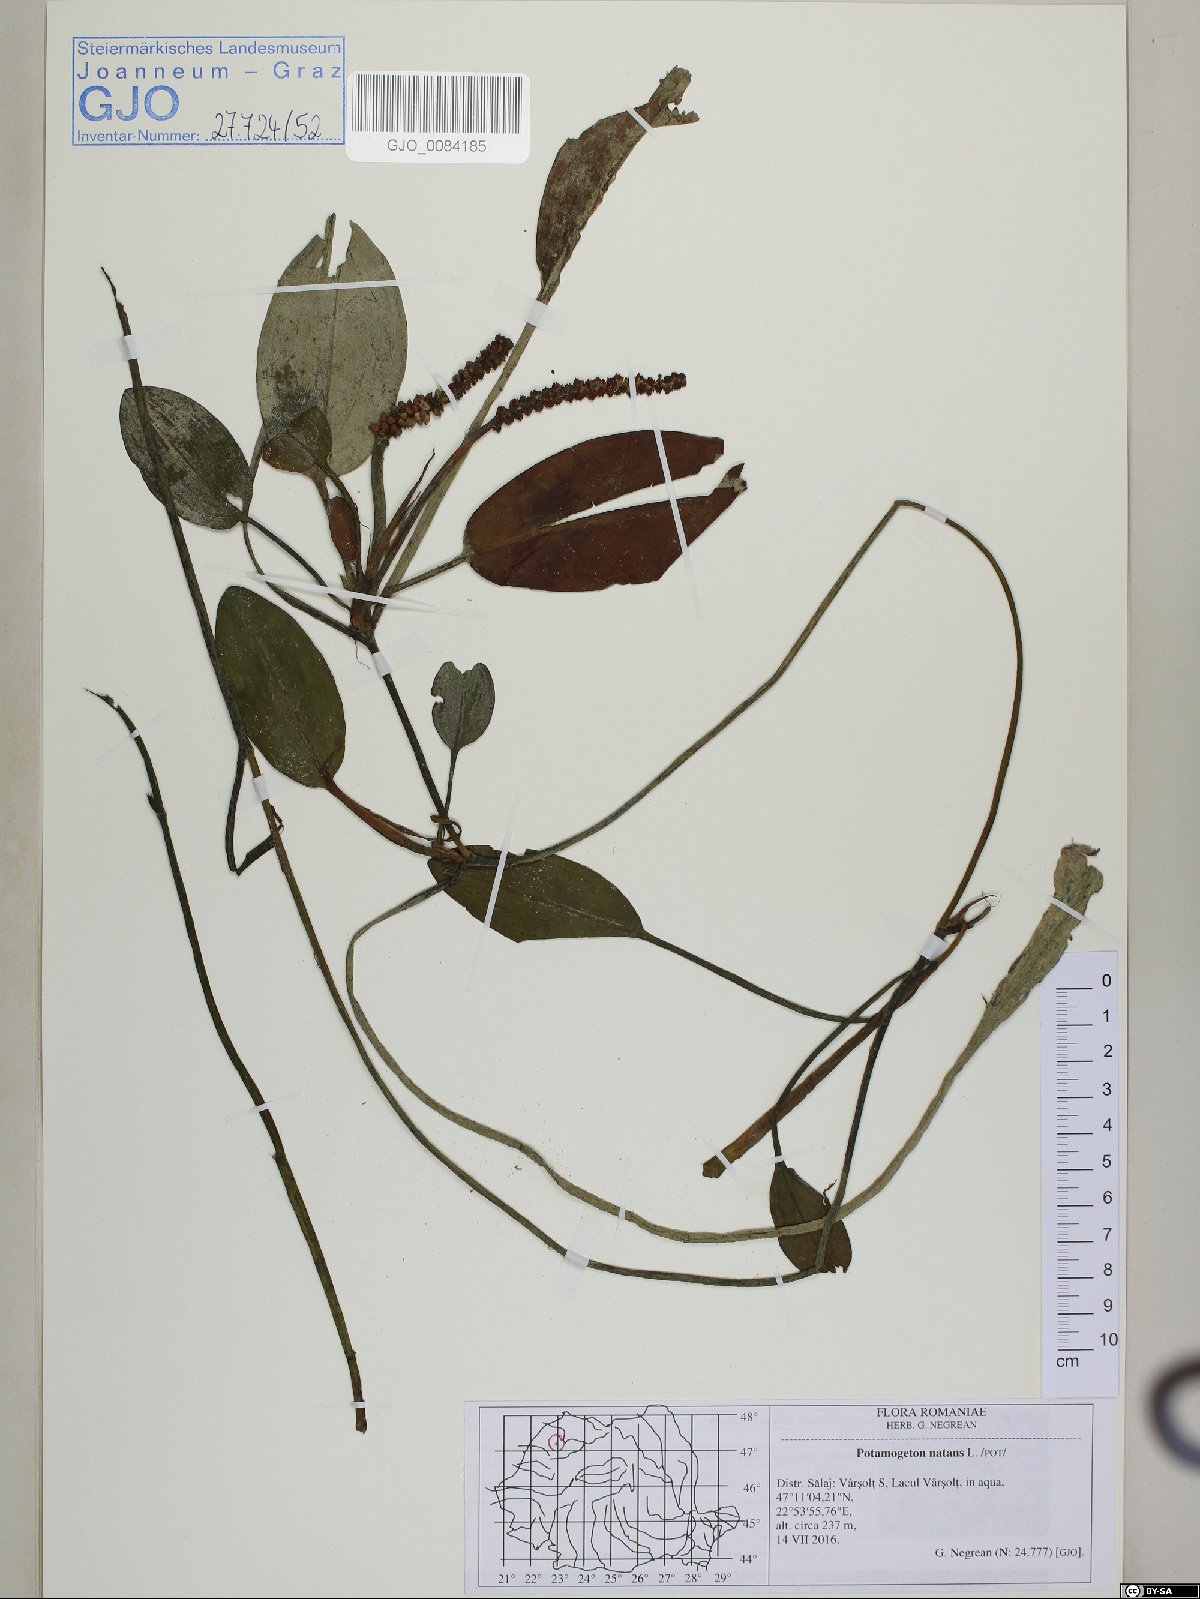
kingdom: Plantae
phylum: Tracheophyta
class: Liliopsida
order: Alismatales
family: Potamogetonaceae
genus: Potamogeton
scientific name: Potamogeton natans
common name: Broad-leaved pondweed
